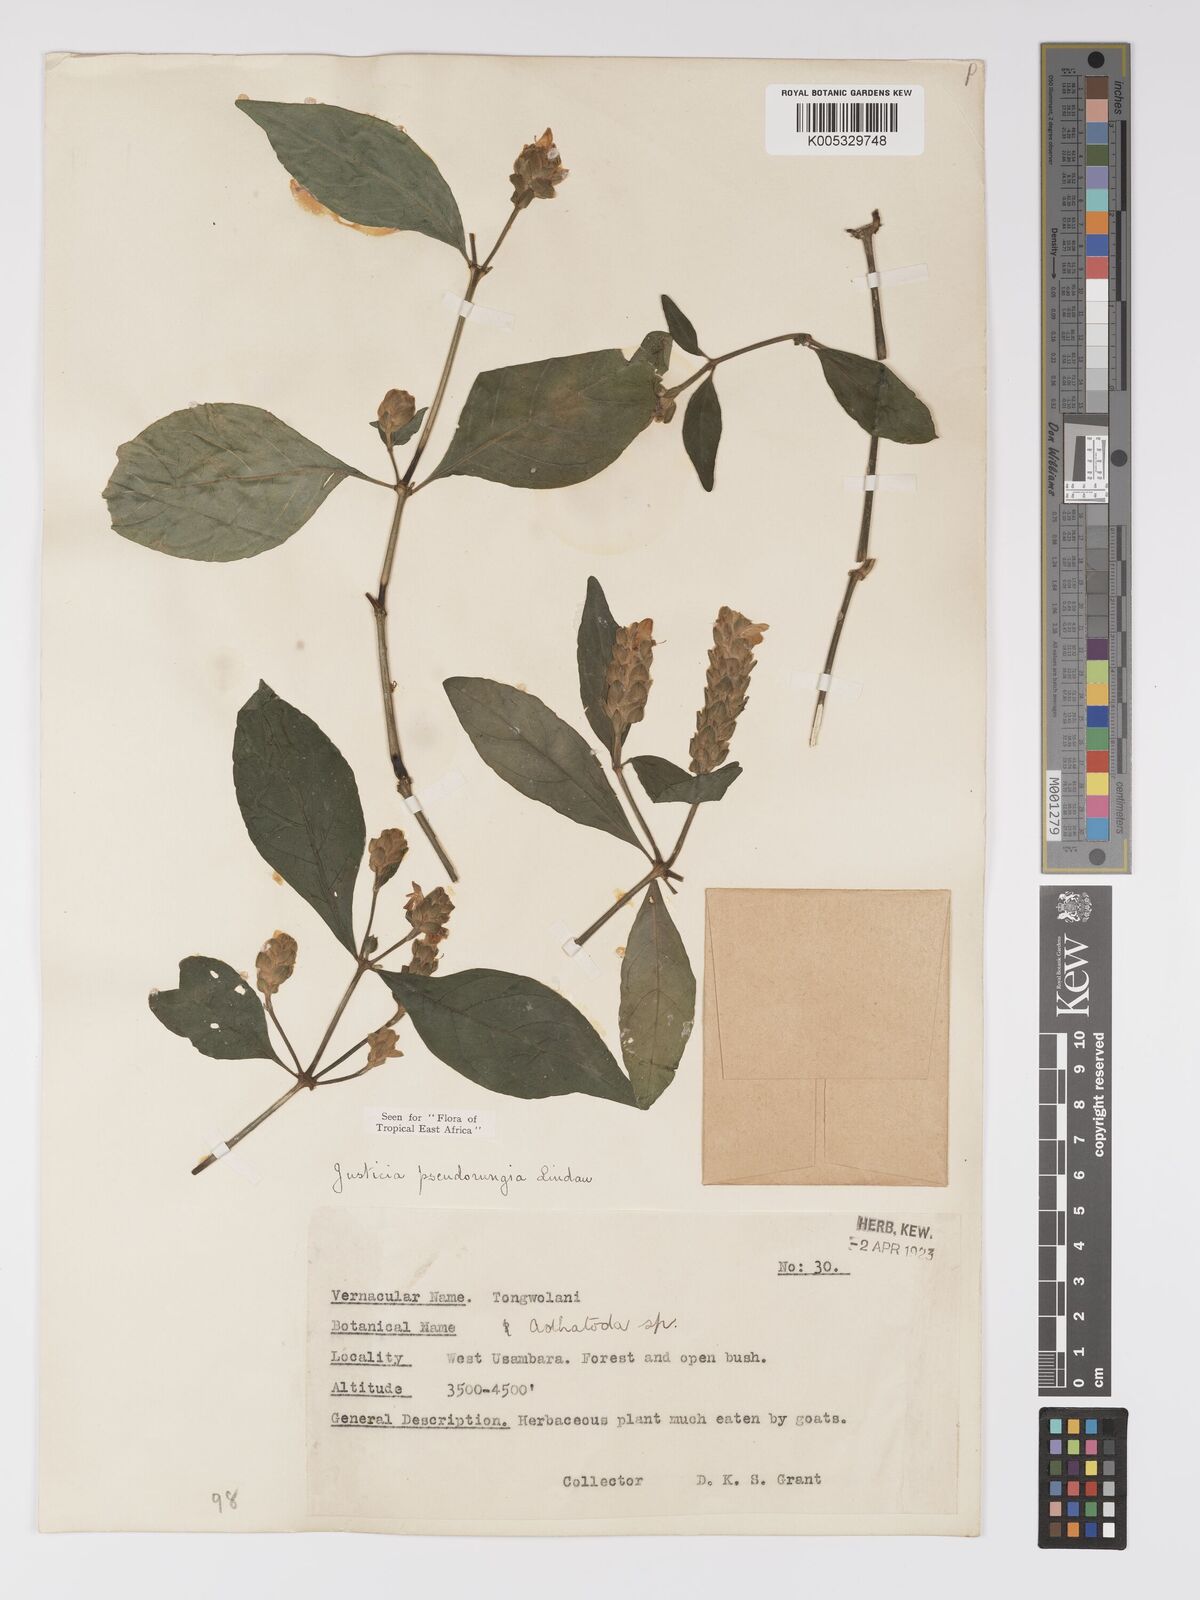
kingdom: Plantae
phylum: Tracheophyta
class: Magnoliopsida
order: Lamiales
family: Acanthaceae
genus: Justicia
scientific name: Justicia pseudorungia
